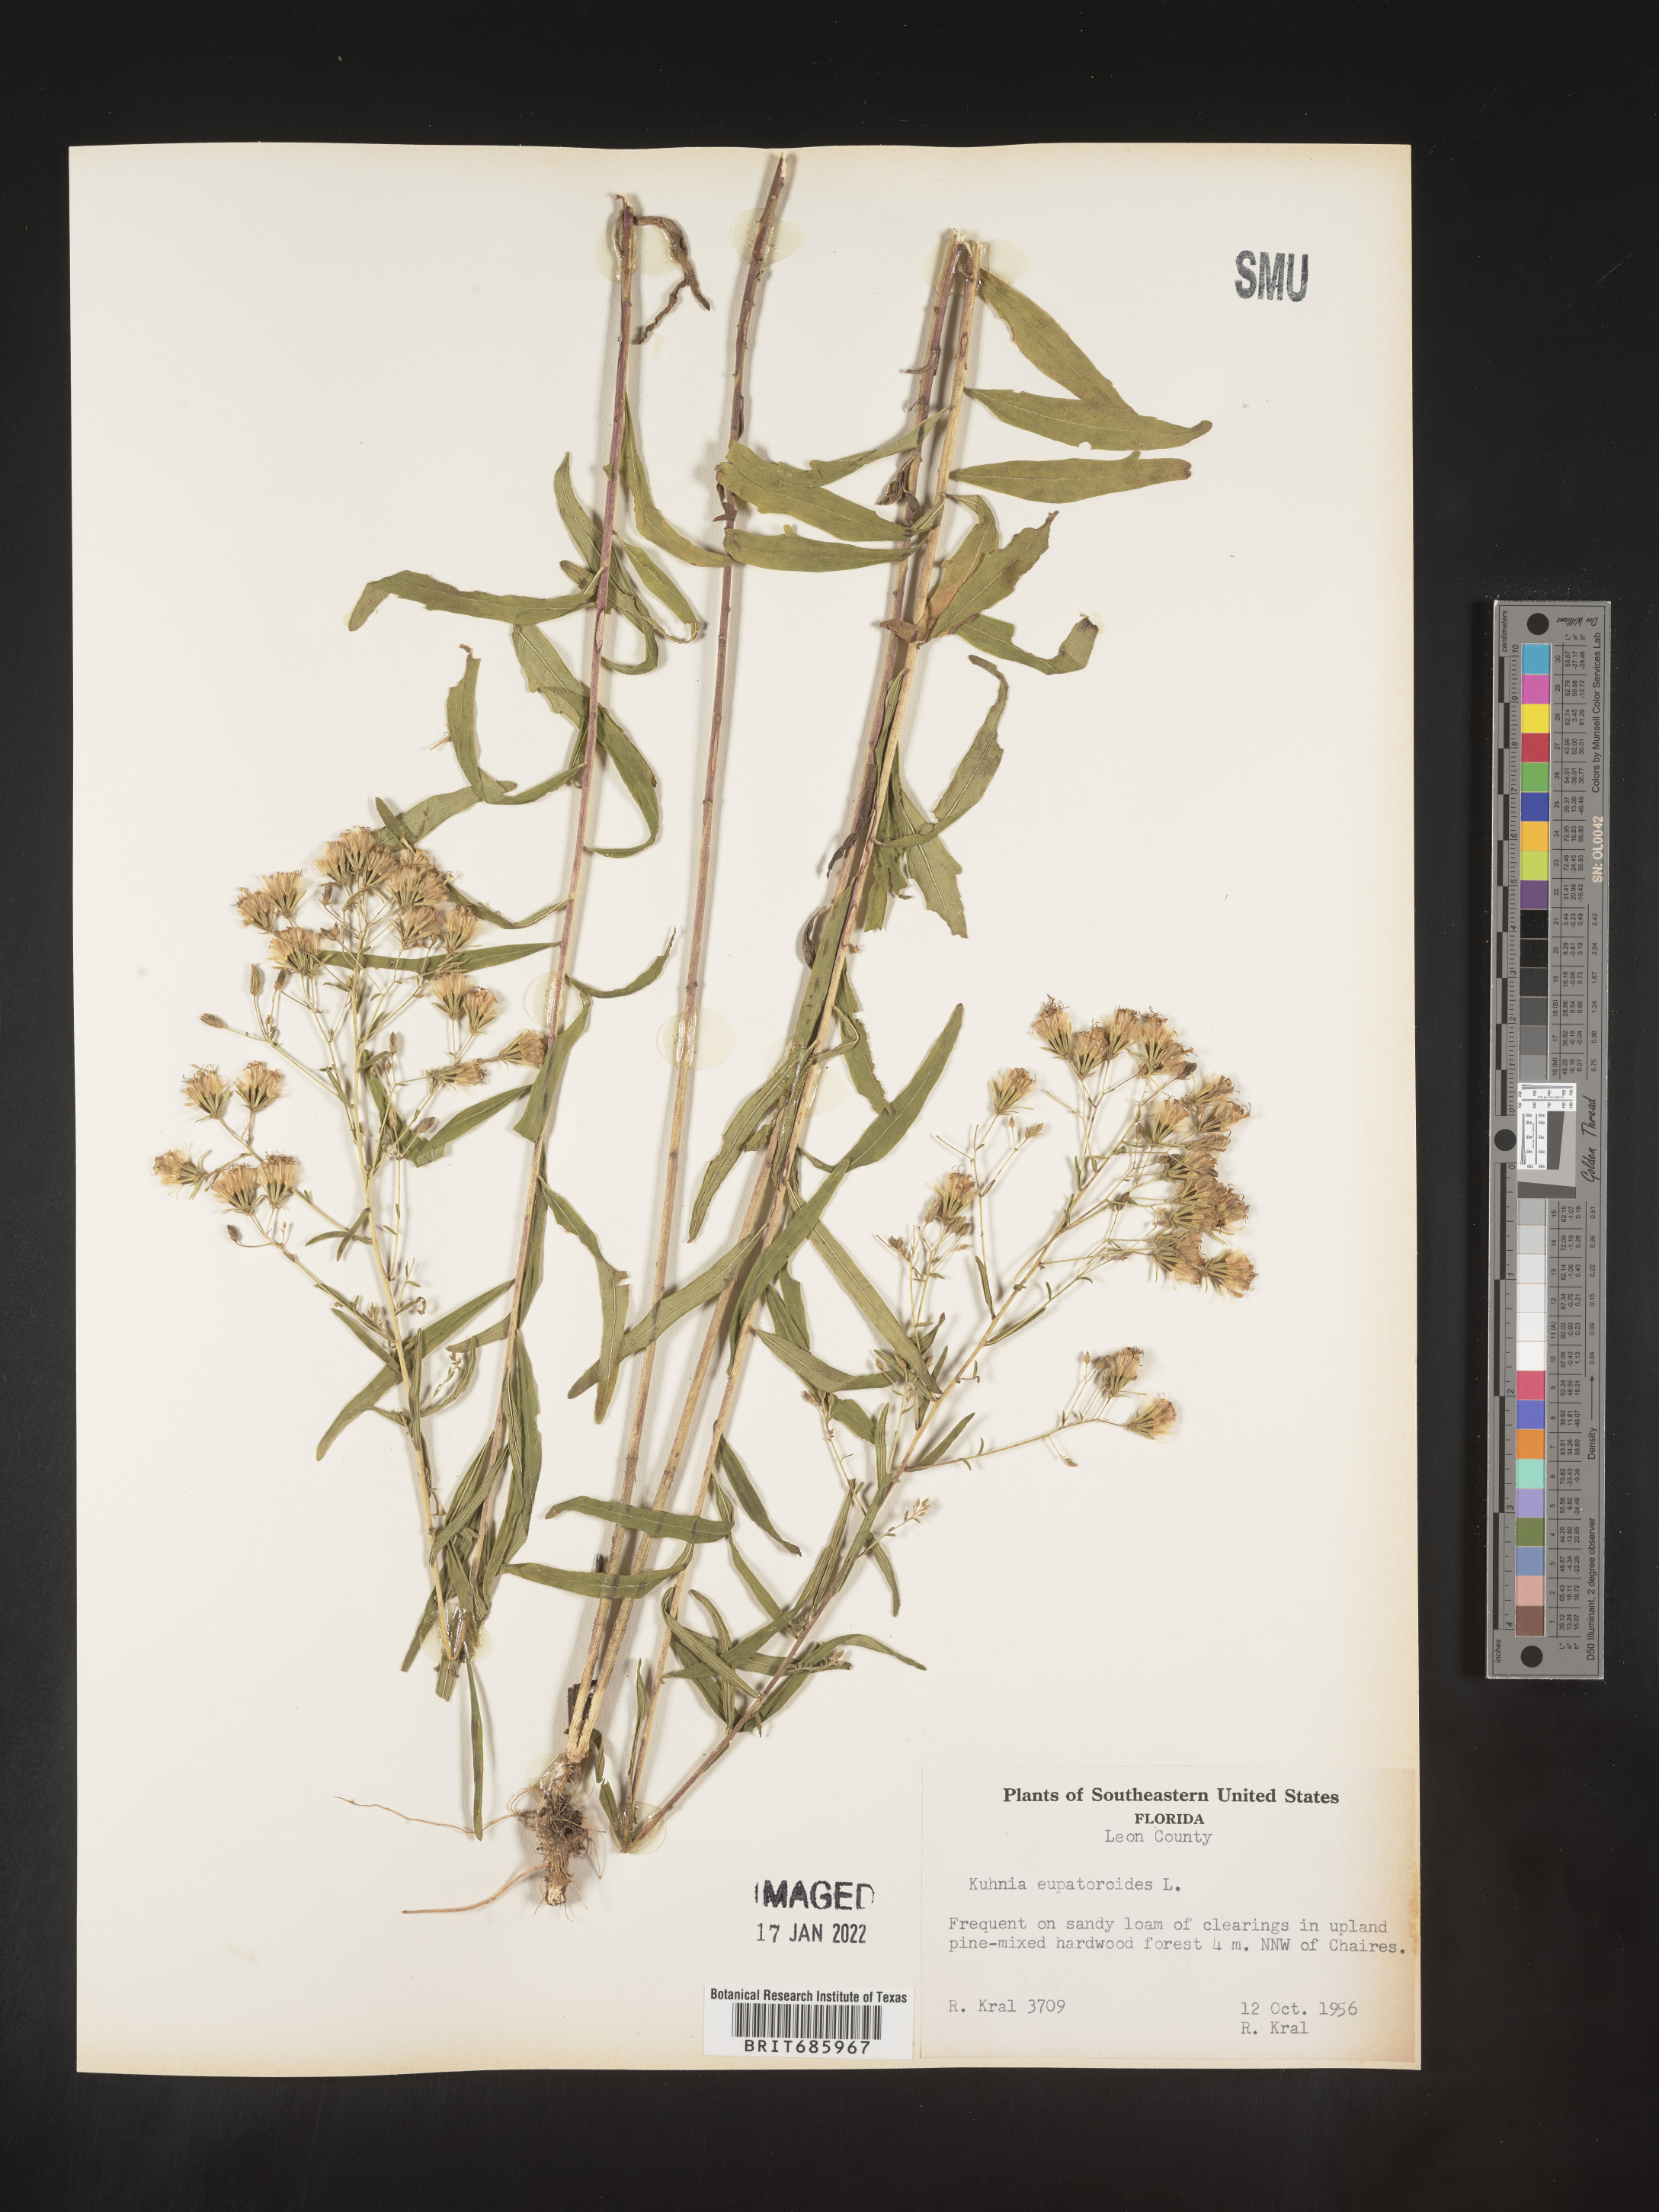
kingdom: Plantae
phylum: Tracheophyta
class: Magnoliopsida
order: Asterales
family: Asteraceae
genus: Brickellia
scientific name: Brickellia eupatorioides
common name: False boneset
